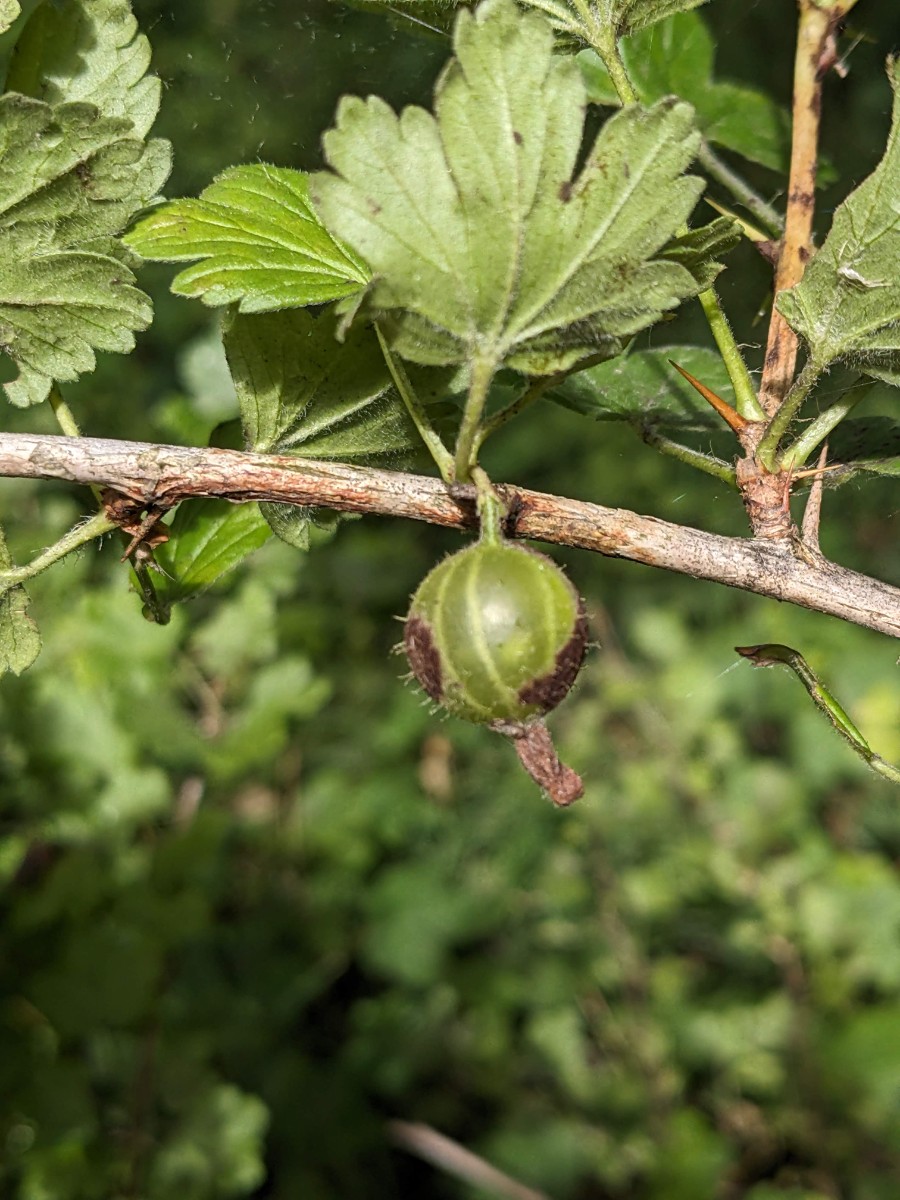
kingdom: Fungi
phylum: Ascomycota
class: Leotiomycetes
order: Helotiales
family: Erysiphaceae
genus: Podosphaera
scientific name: Podosphaera mors-uvae
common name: American gooseberry mildew
